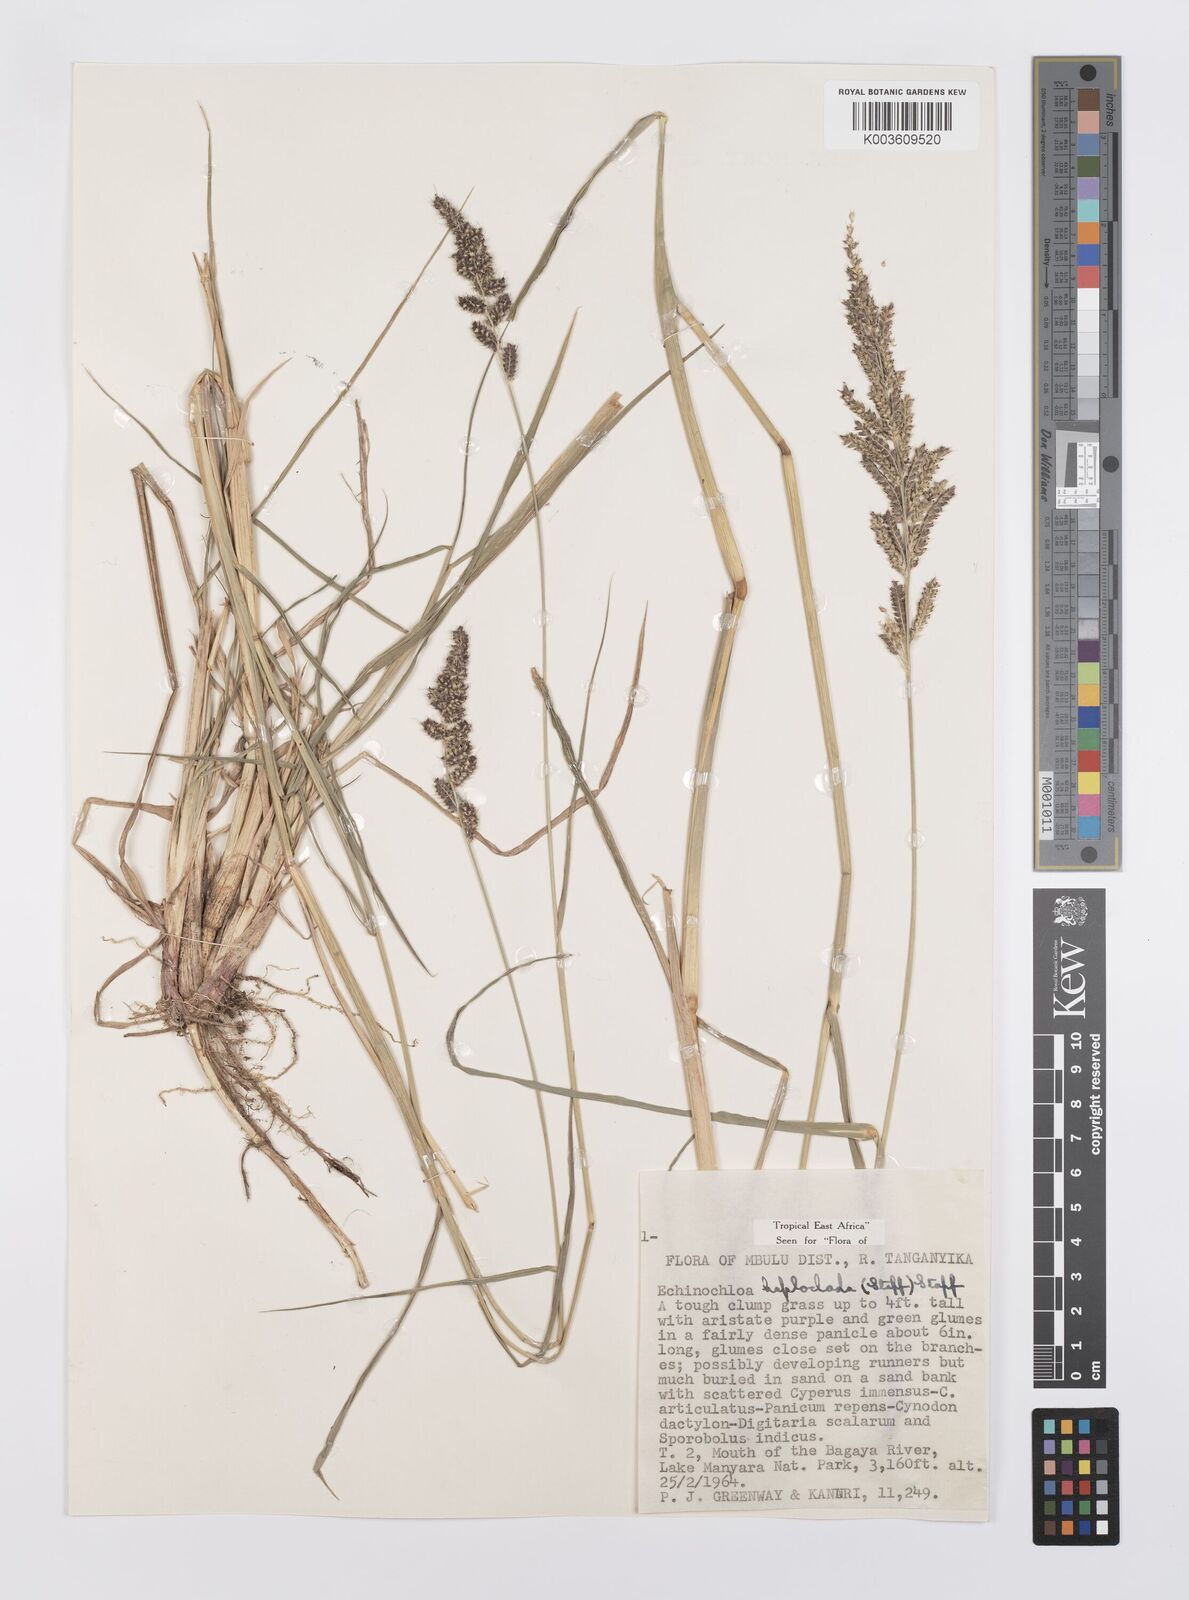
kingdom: Plantae
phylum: Tracheophyta
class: Liliopsida
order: Poales
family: Poaceae
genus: Echinochloa
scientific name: Echinochloa haploclada
